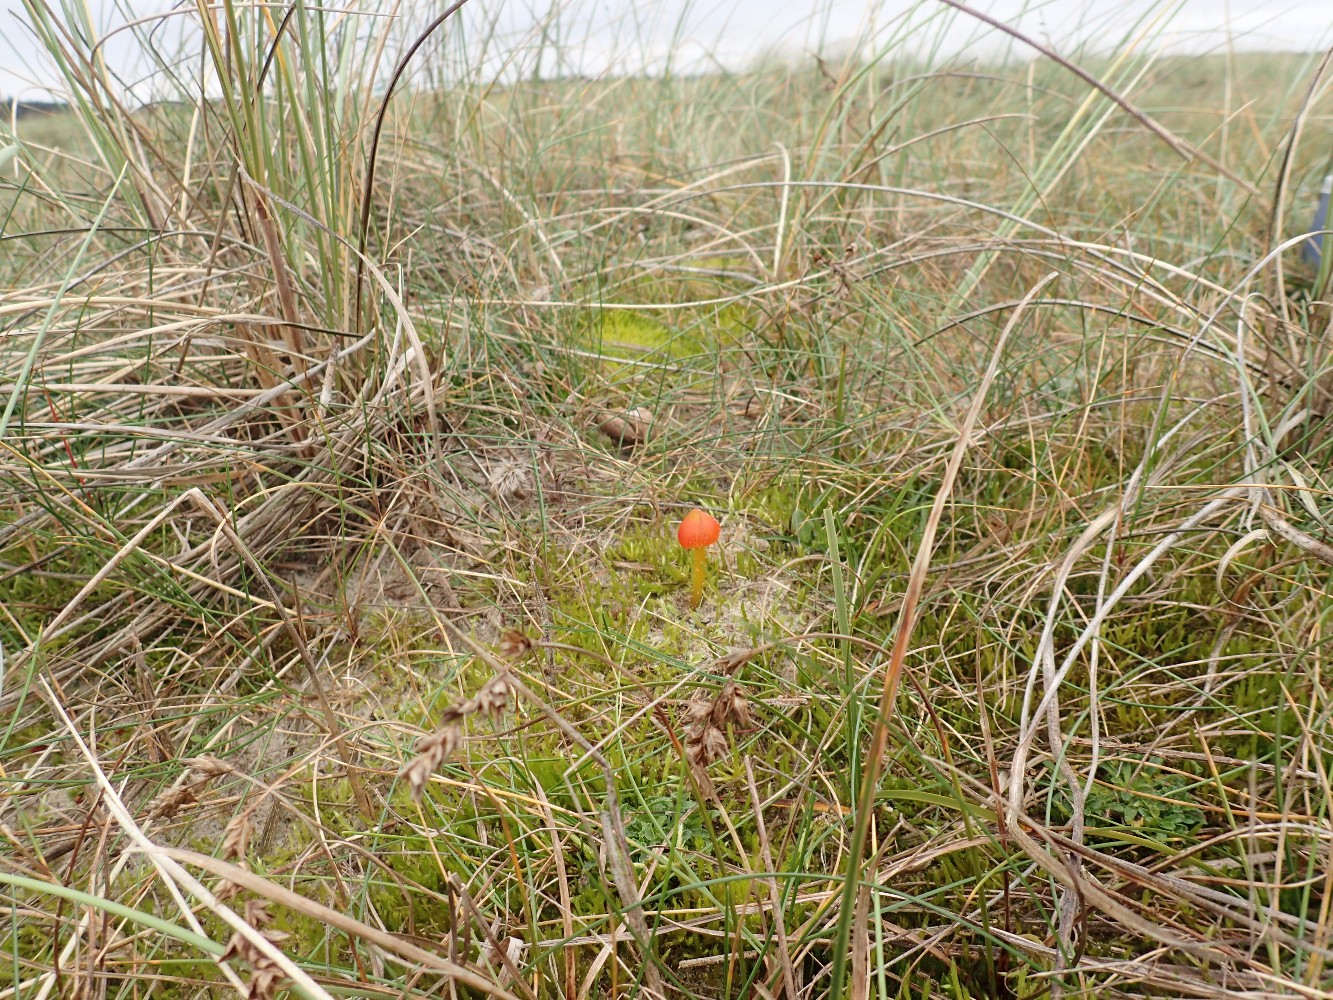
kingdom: Fungi
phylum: Basidiomycota
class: Agaricomycetes
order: Agaricales
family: Hygrophoraceae
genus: Hygrocybe
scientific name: Hygrocybe conicoides
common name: klit-vokshat
